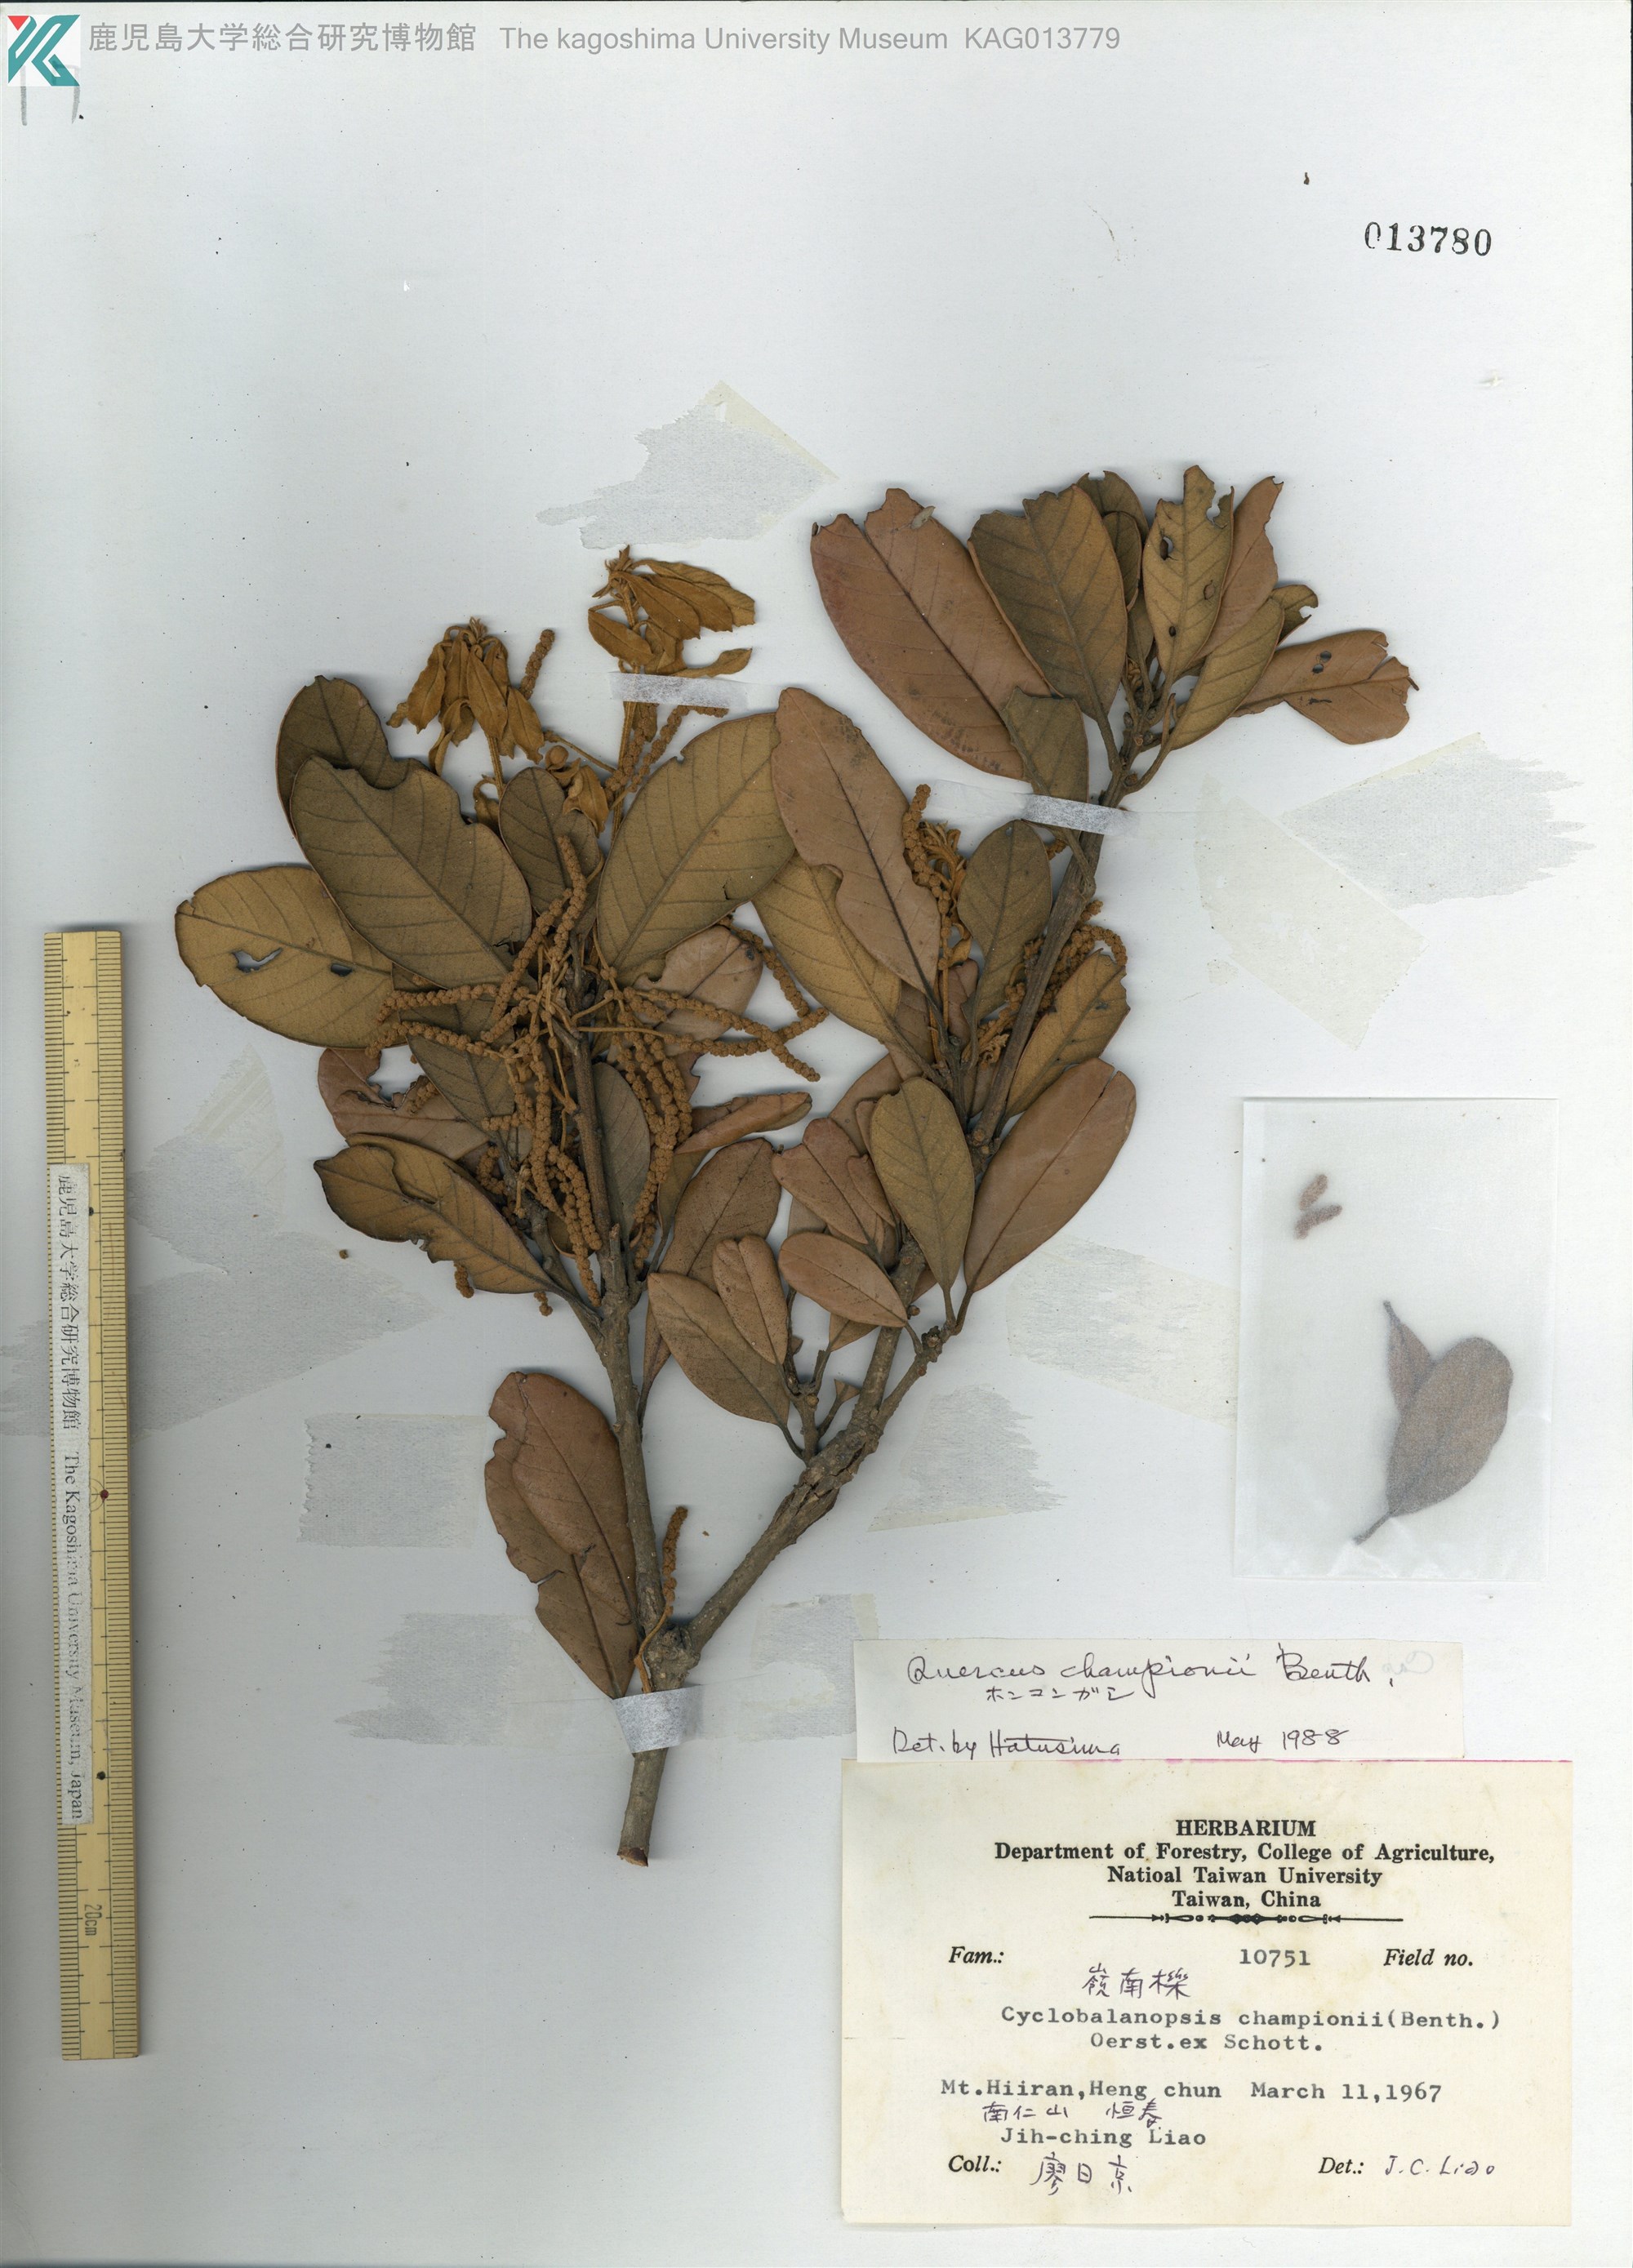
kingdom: Plantae
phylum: Tracheophyta
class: Magnoliopsida
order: Fagales
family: Fagaceae
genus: Quercus
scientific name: Quercus championii
